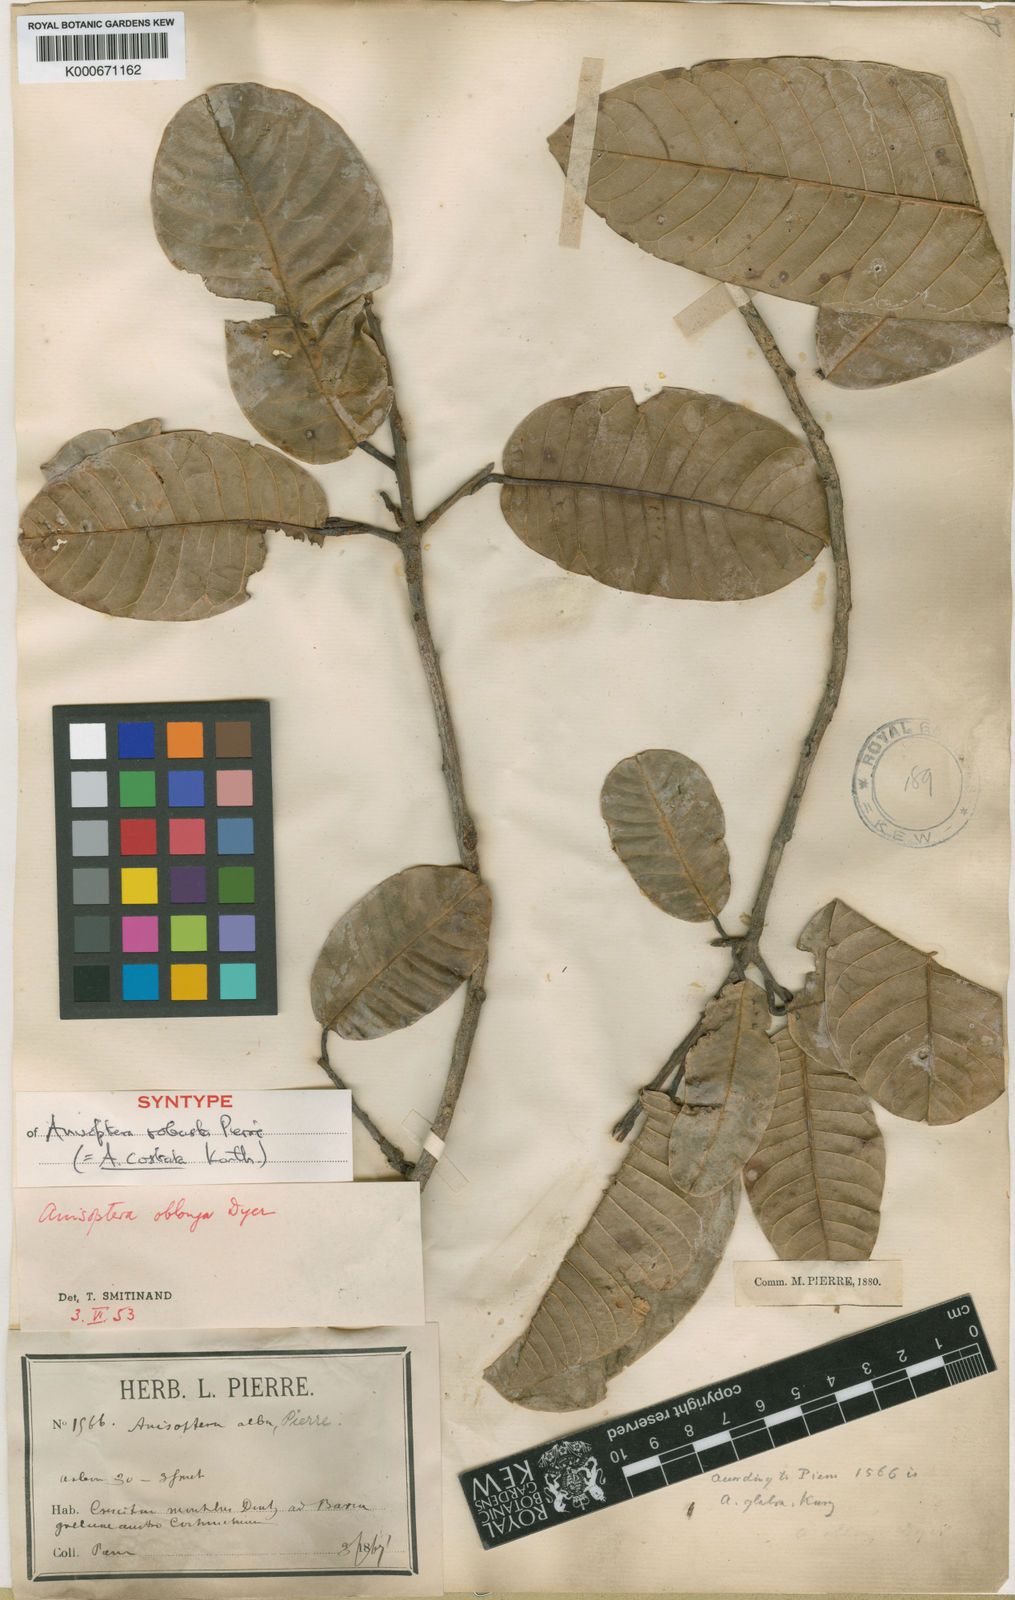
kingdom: Plantae
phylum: Tracheophyta
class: Magnoliopsida
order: Malvales
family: Dipterocarpaceae
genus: Anisoptera
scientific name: Anisoptera costata
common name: Mersawa
